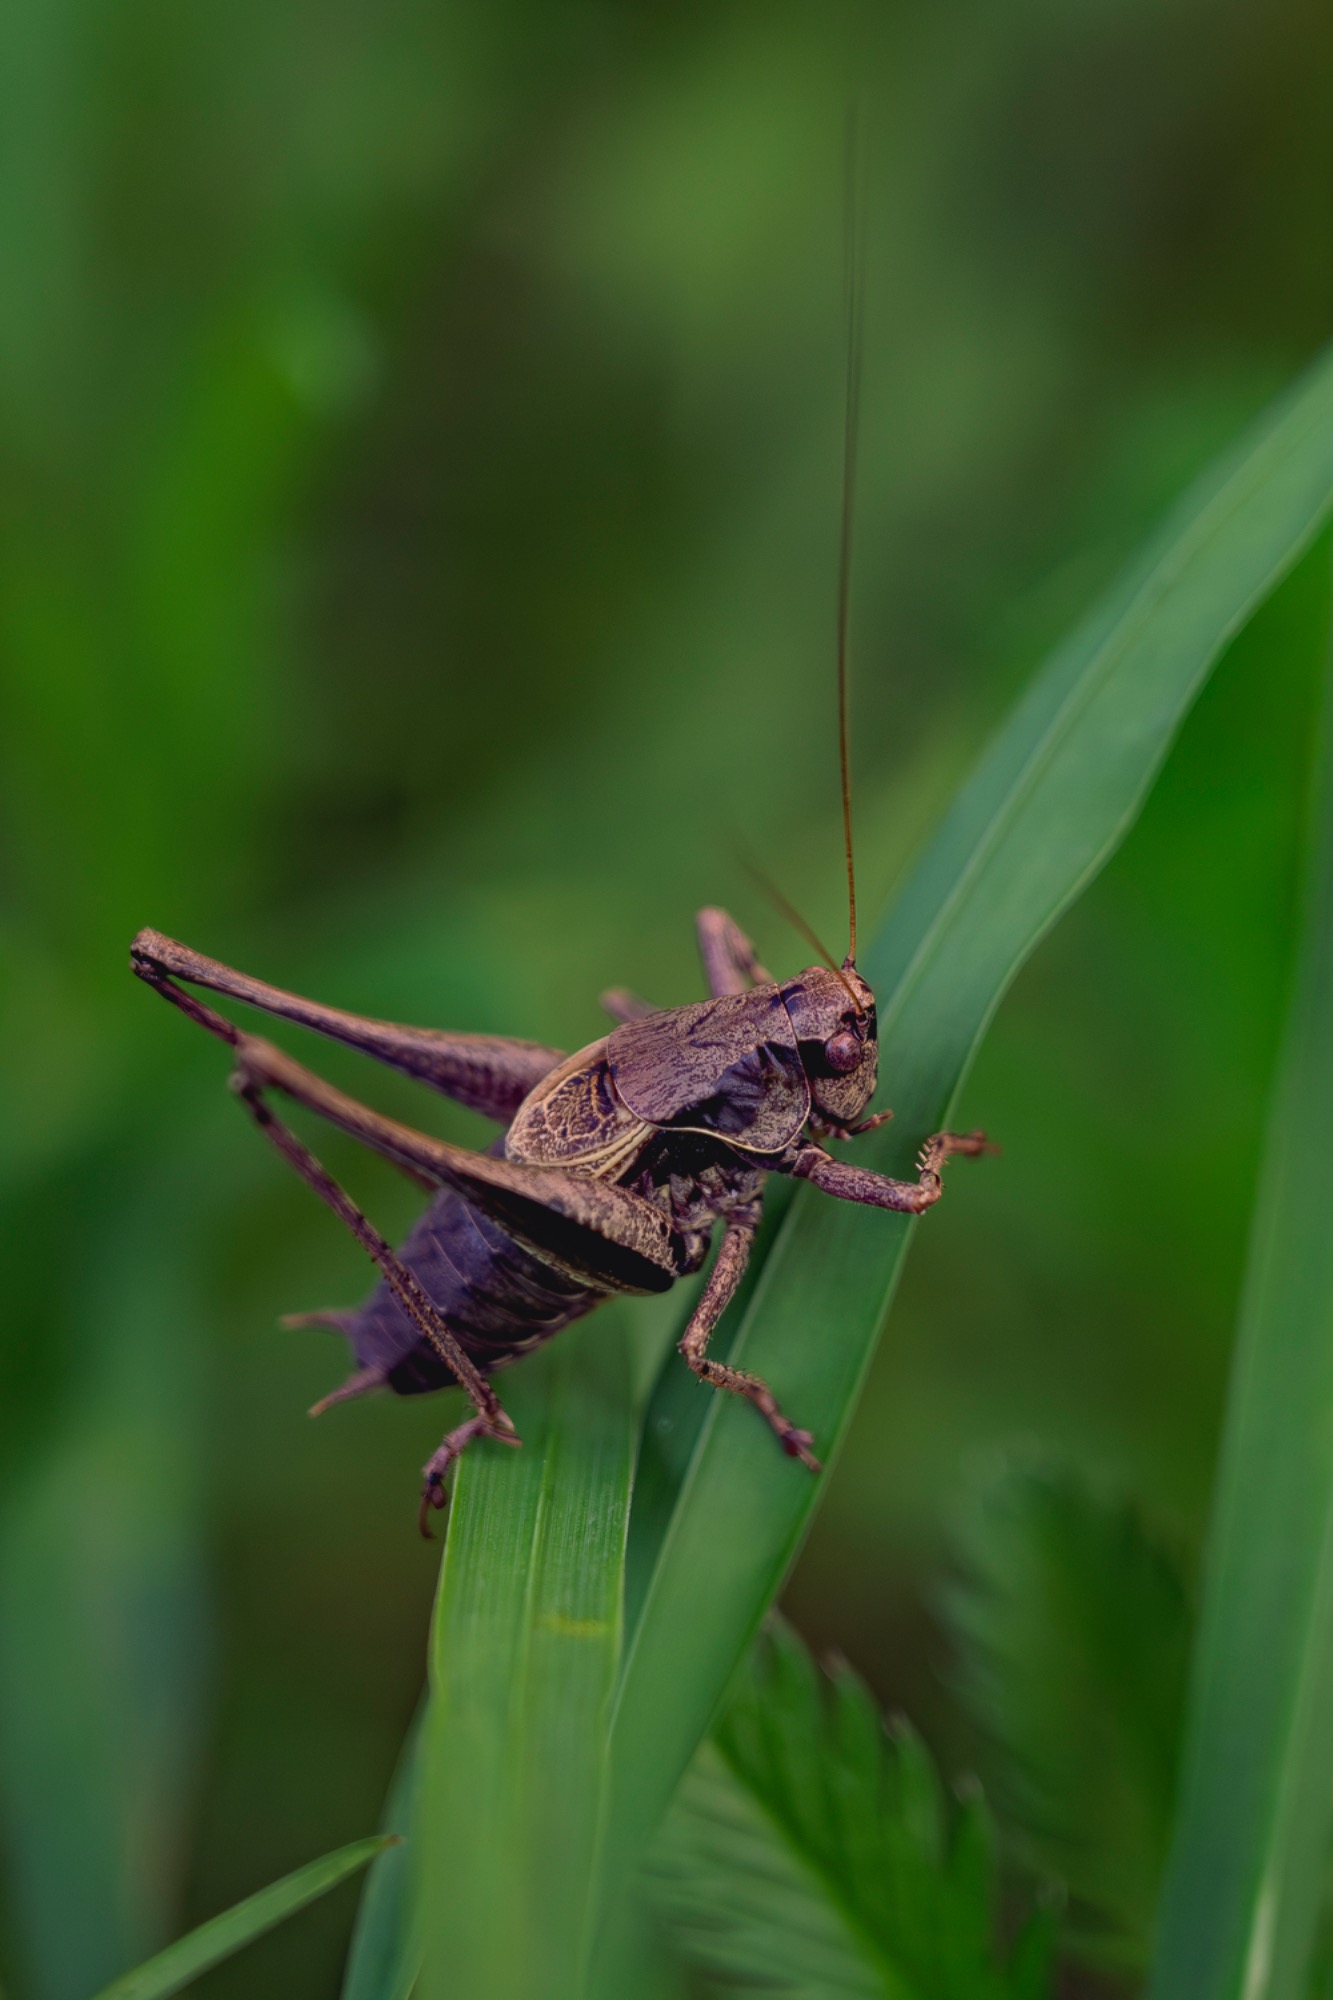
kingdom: Animalia
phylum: Arthropoda
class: Insecta
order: Orthoptera
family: Tettigoniidae
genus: Pholidoptera
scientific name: Pholidoptera griseoaptera
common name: Buskgræshoppe
